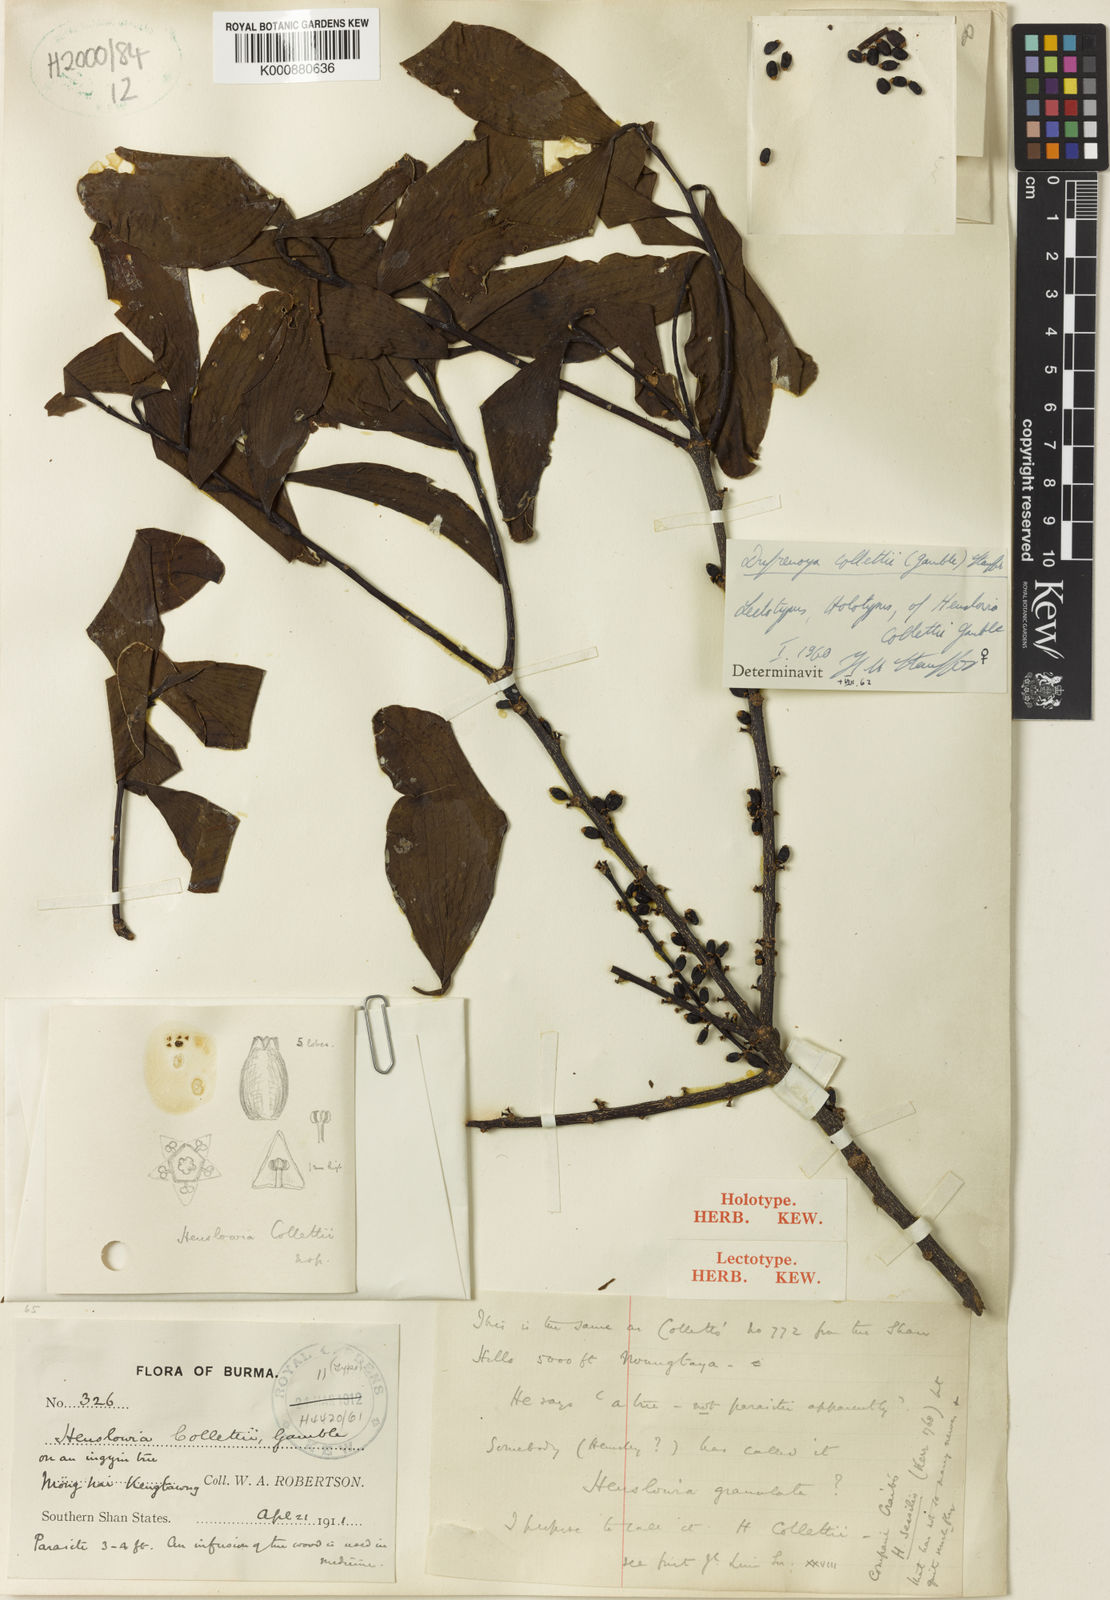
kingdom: Plantae
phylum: Tracheophyta
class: Magnoliopsida
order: Santalales
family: Amphorogynaceae
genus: Dufrenoya
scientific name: Dufrenoya collettii
